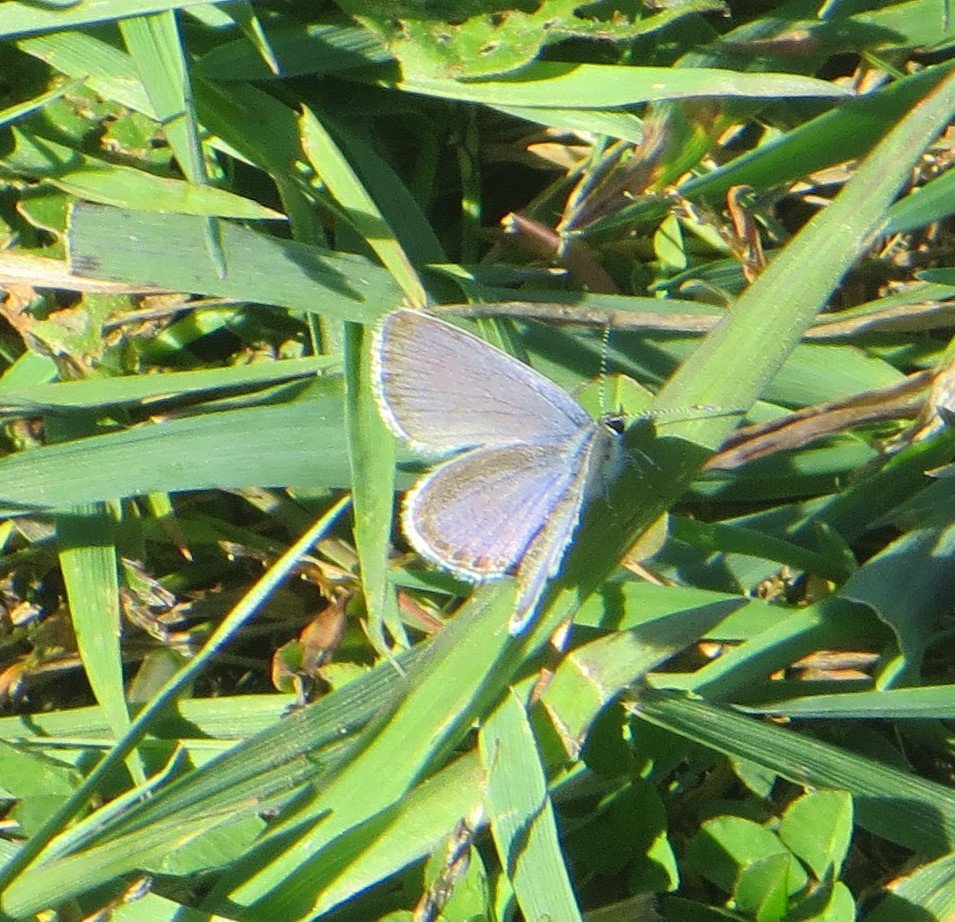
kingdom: Animalia
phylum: Arthropoda
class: Insecta
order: Lepidoptera
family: Lycaenidae
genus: Elkalyce
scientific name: Elkalyce comyntas
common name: Eastern Tailed-Blue
